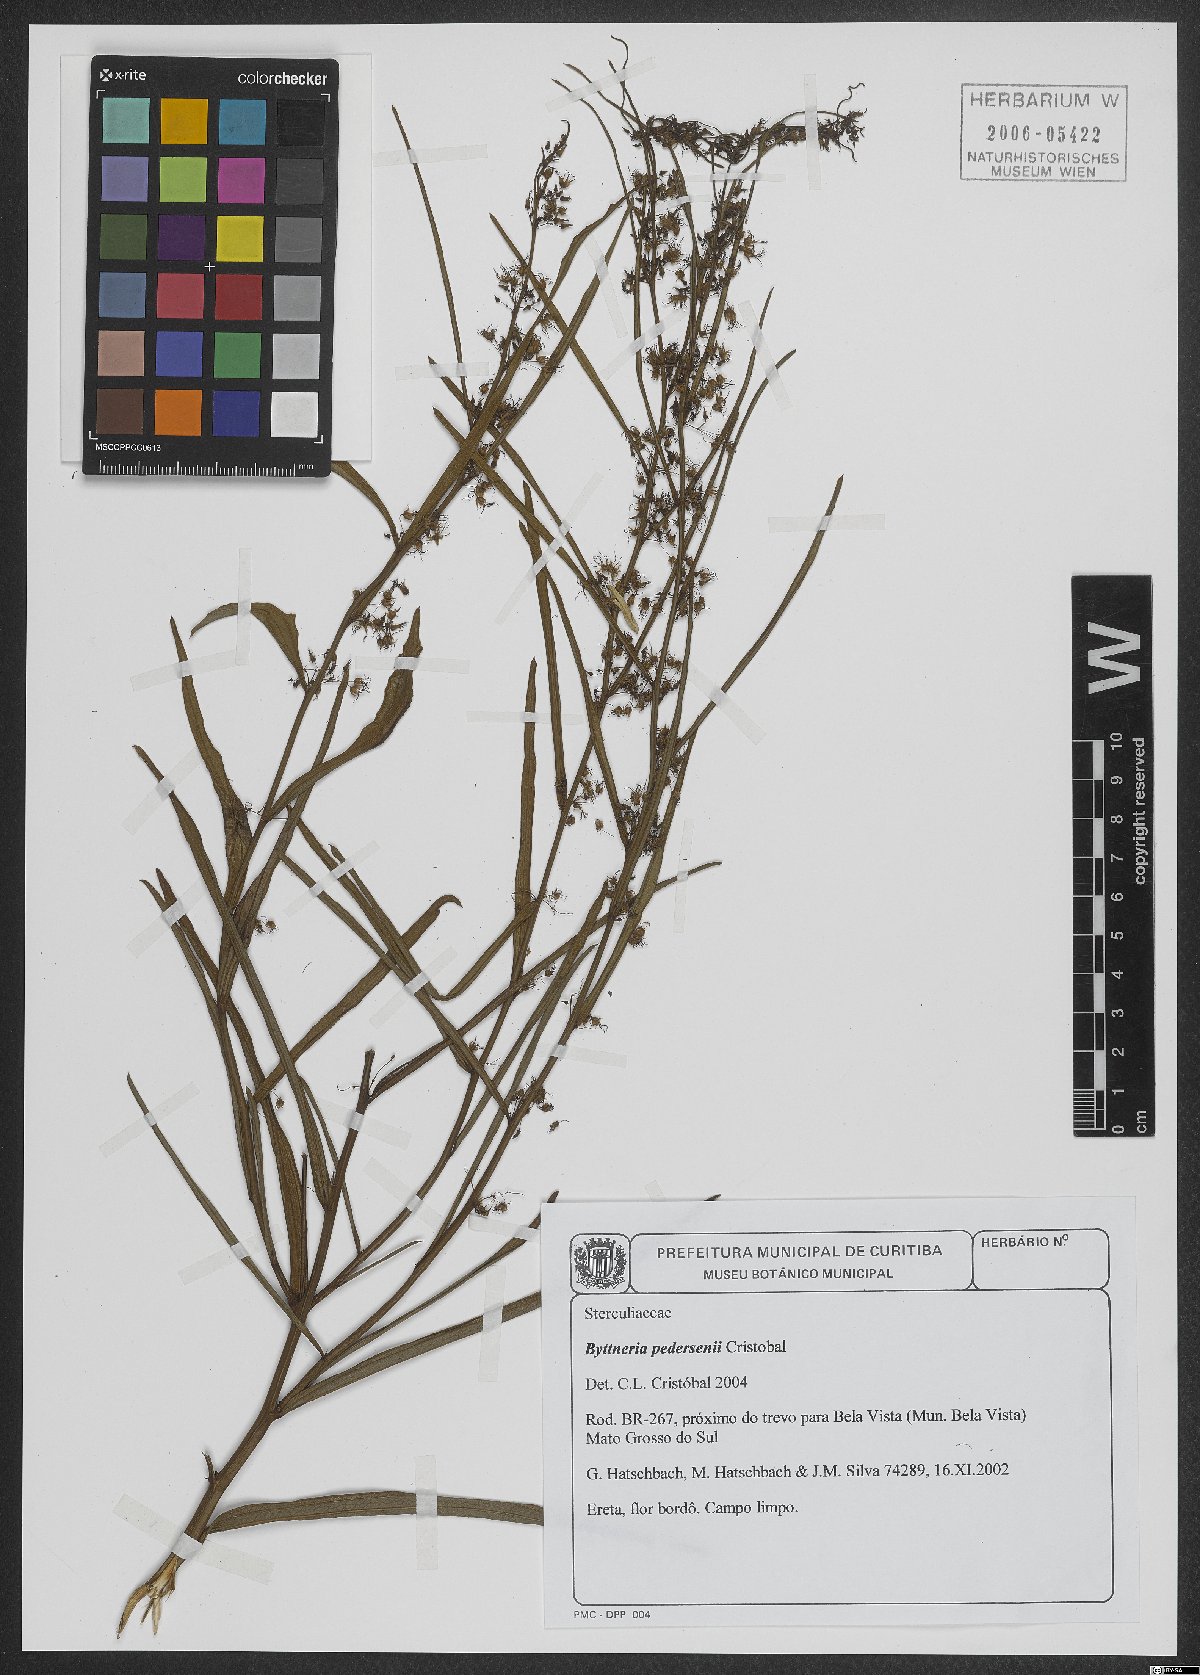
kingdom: Plantae
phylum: Tracheophyta
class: Magnoliopsida
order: Malvales
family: Malvaceae
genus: Byttneria
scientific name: Byttneria pedersenii
